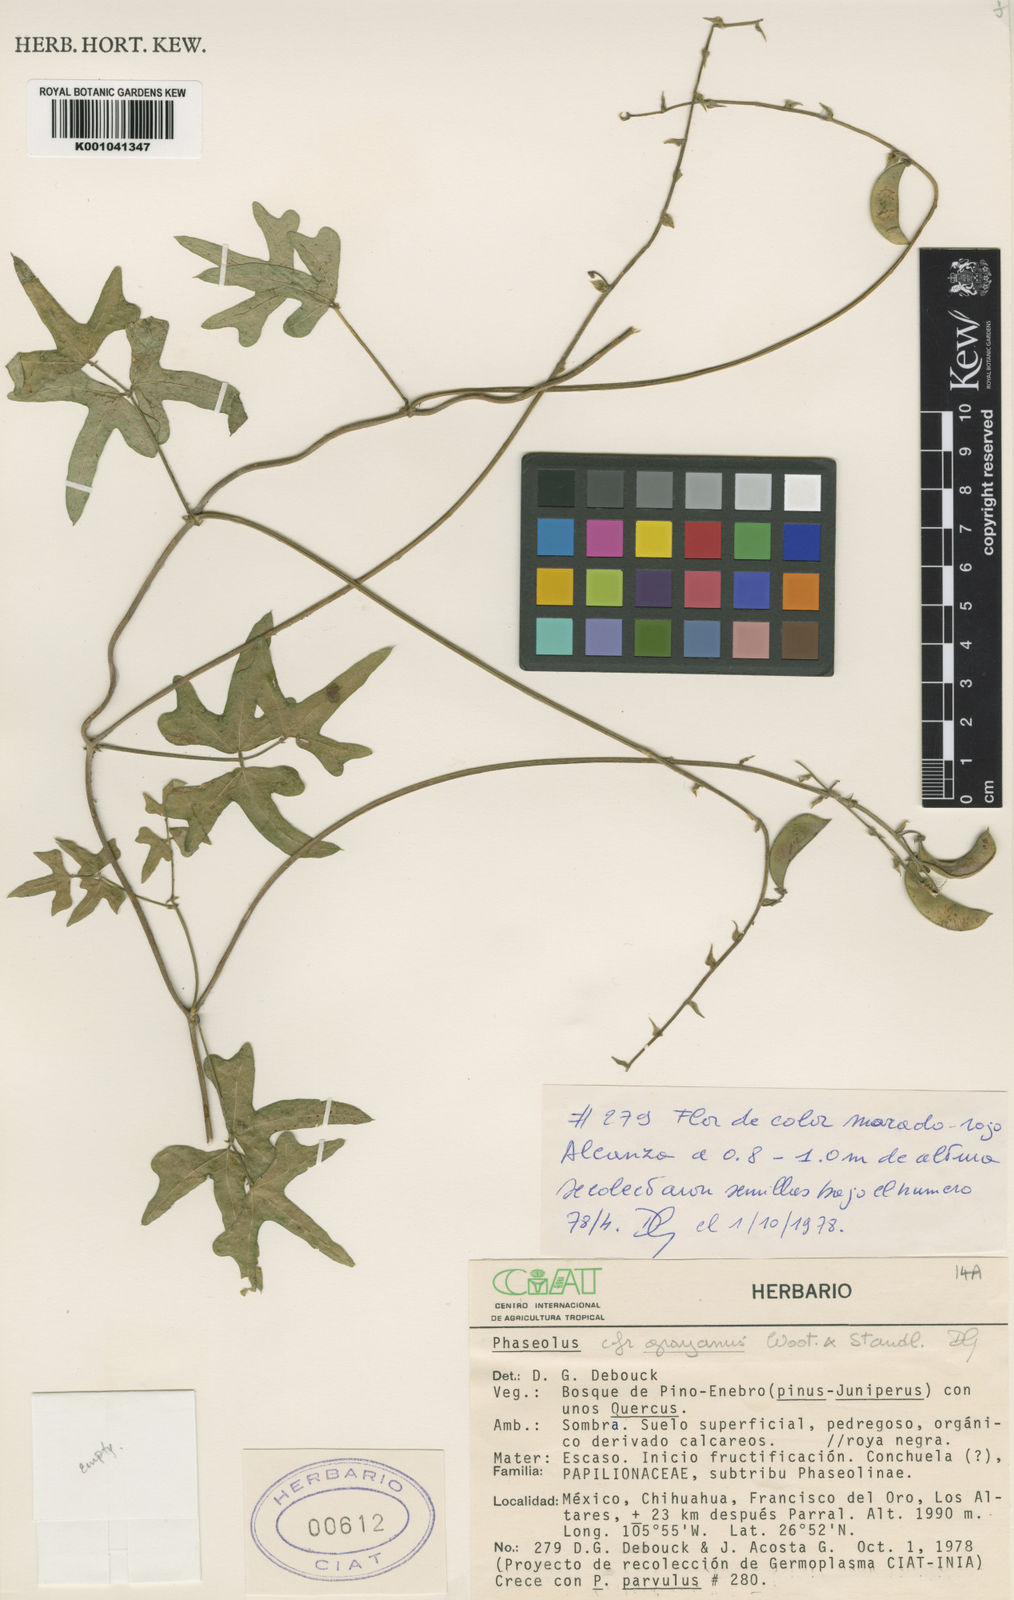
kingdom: Plantae
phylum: Tracheophyta
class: Magnoliopsida
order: Fabales
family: Fabaceae
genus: Phaseolus
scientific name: Phaseolus pedicellatus
